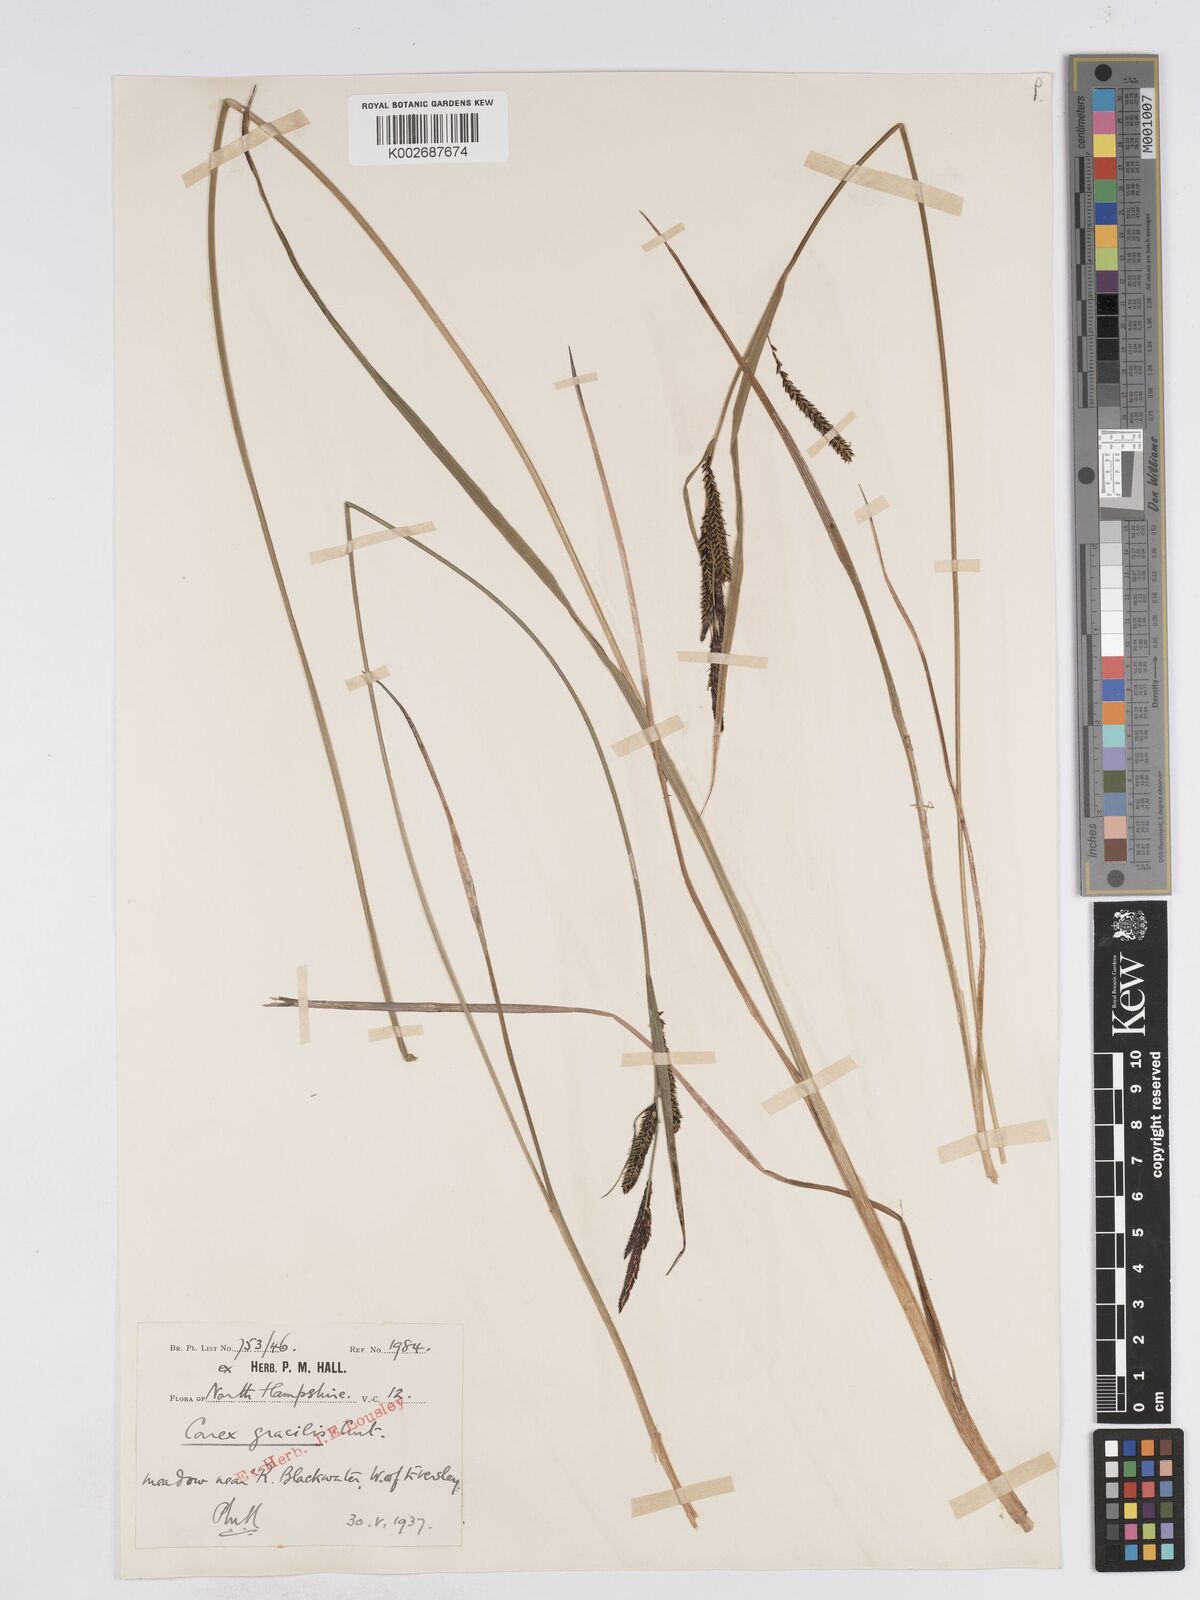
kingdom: Plantae
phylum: Tracheophyta
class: Liliopsida
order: Poales
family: Cyperaceae
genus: Carex
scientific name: Carex acuta
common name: Slender tufted-sedge
